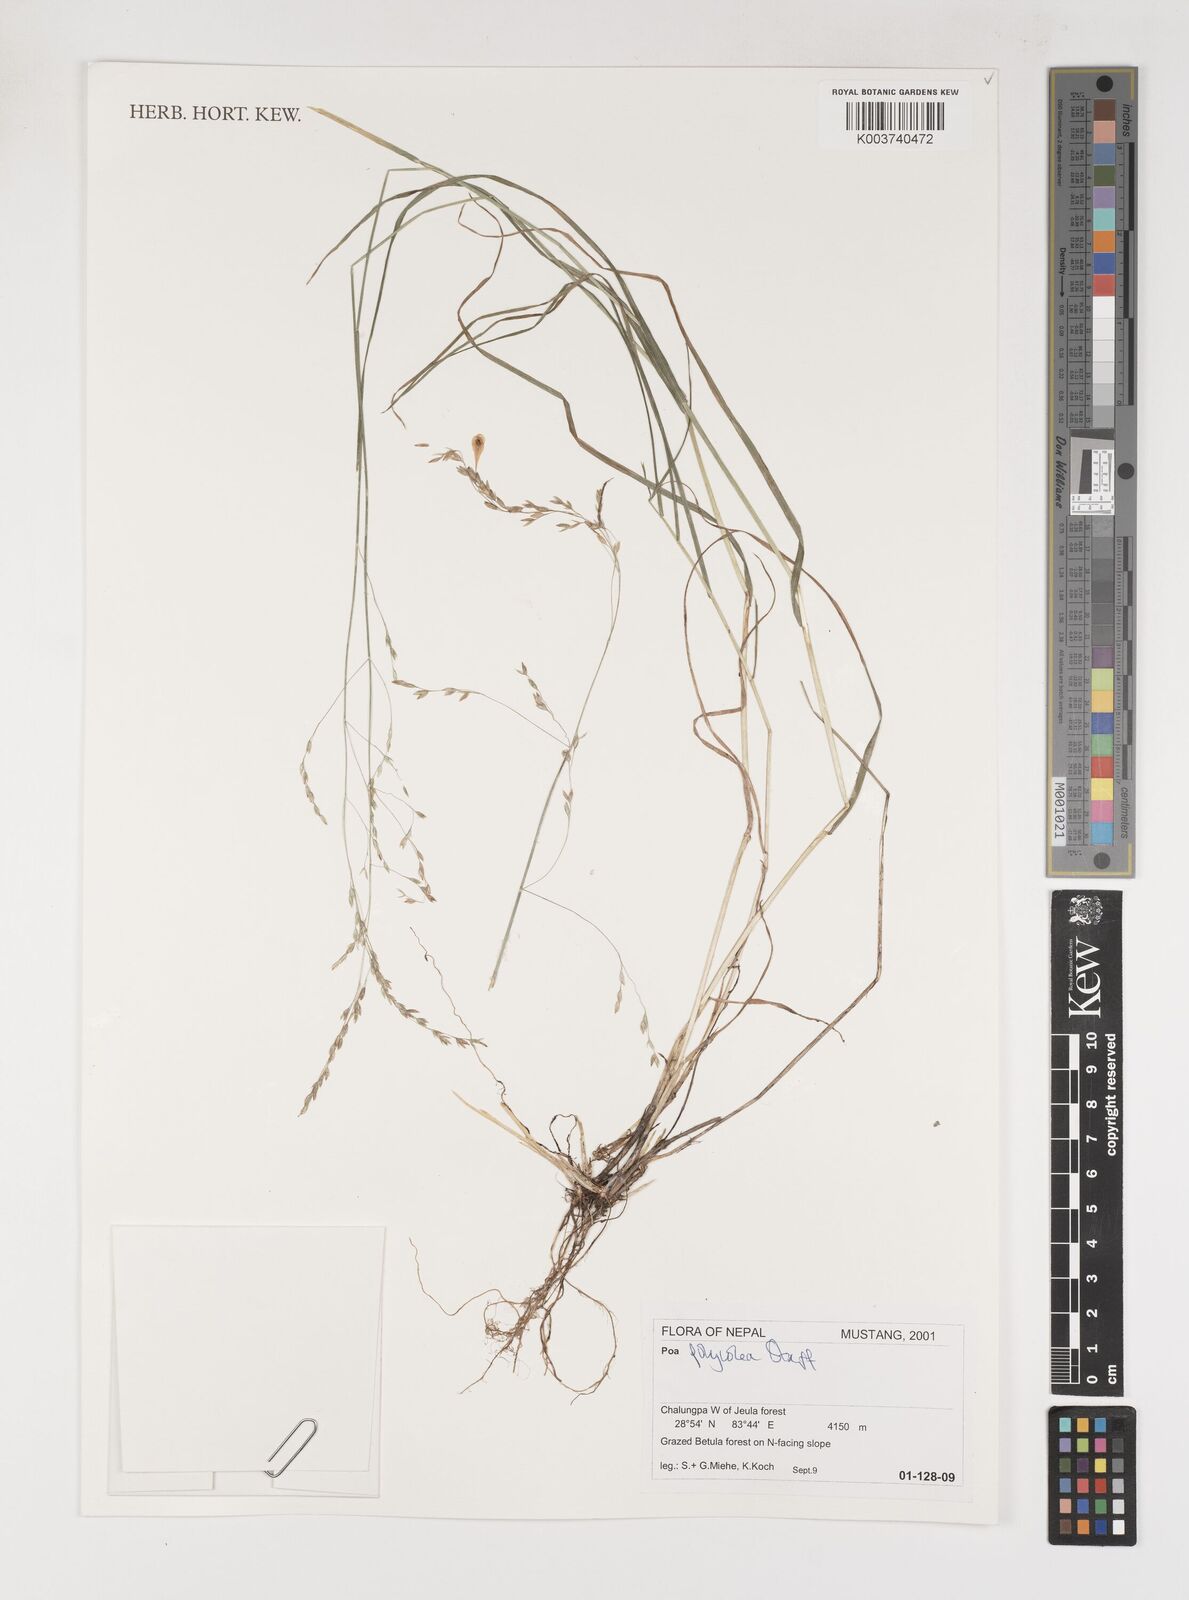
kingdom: Plantae
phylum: Tracheophyta
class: Liliopsida
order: Poales
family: Poaceae
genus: Poa
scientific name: Poa polycolea
